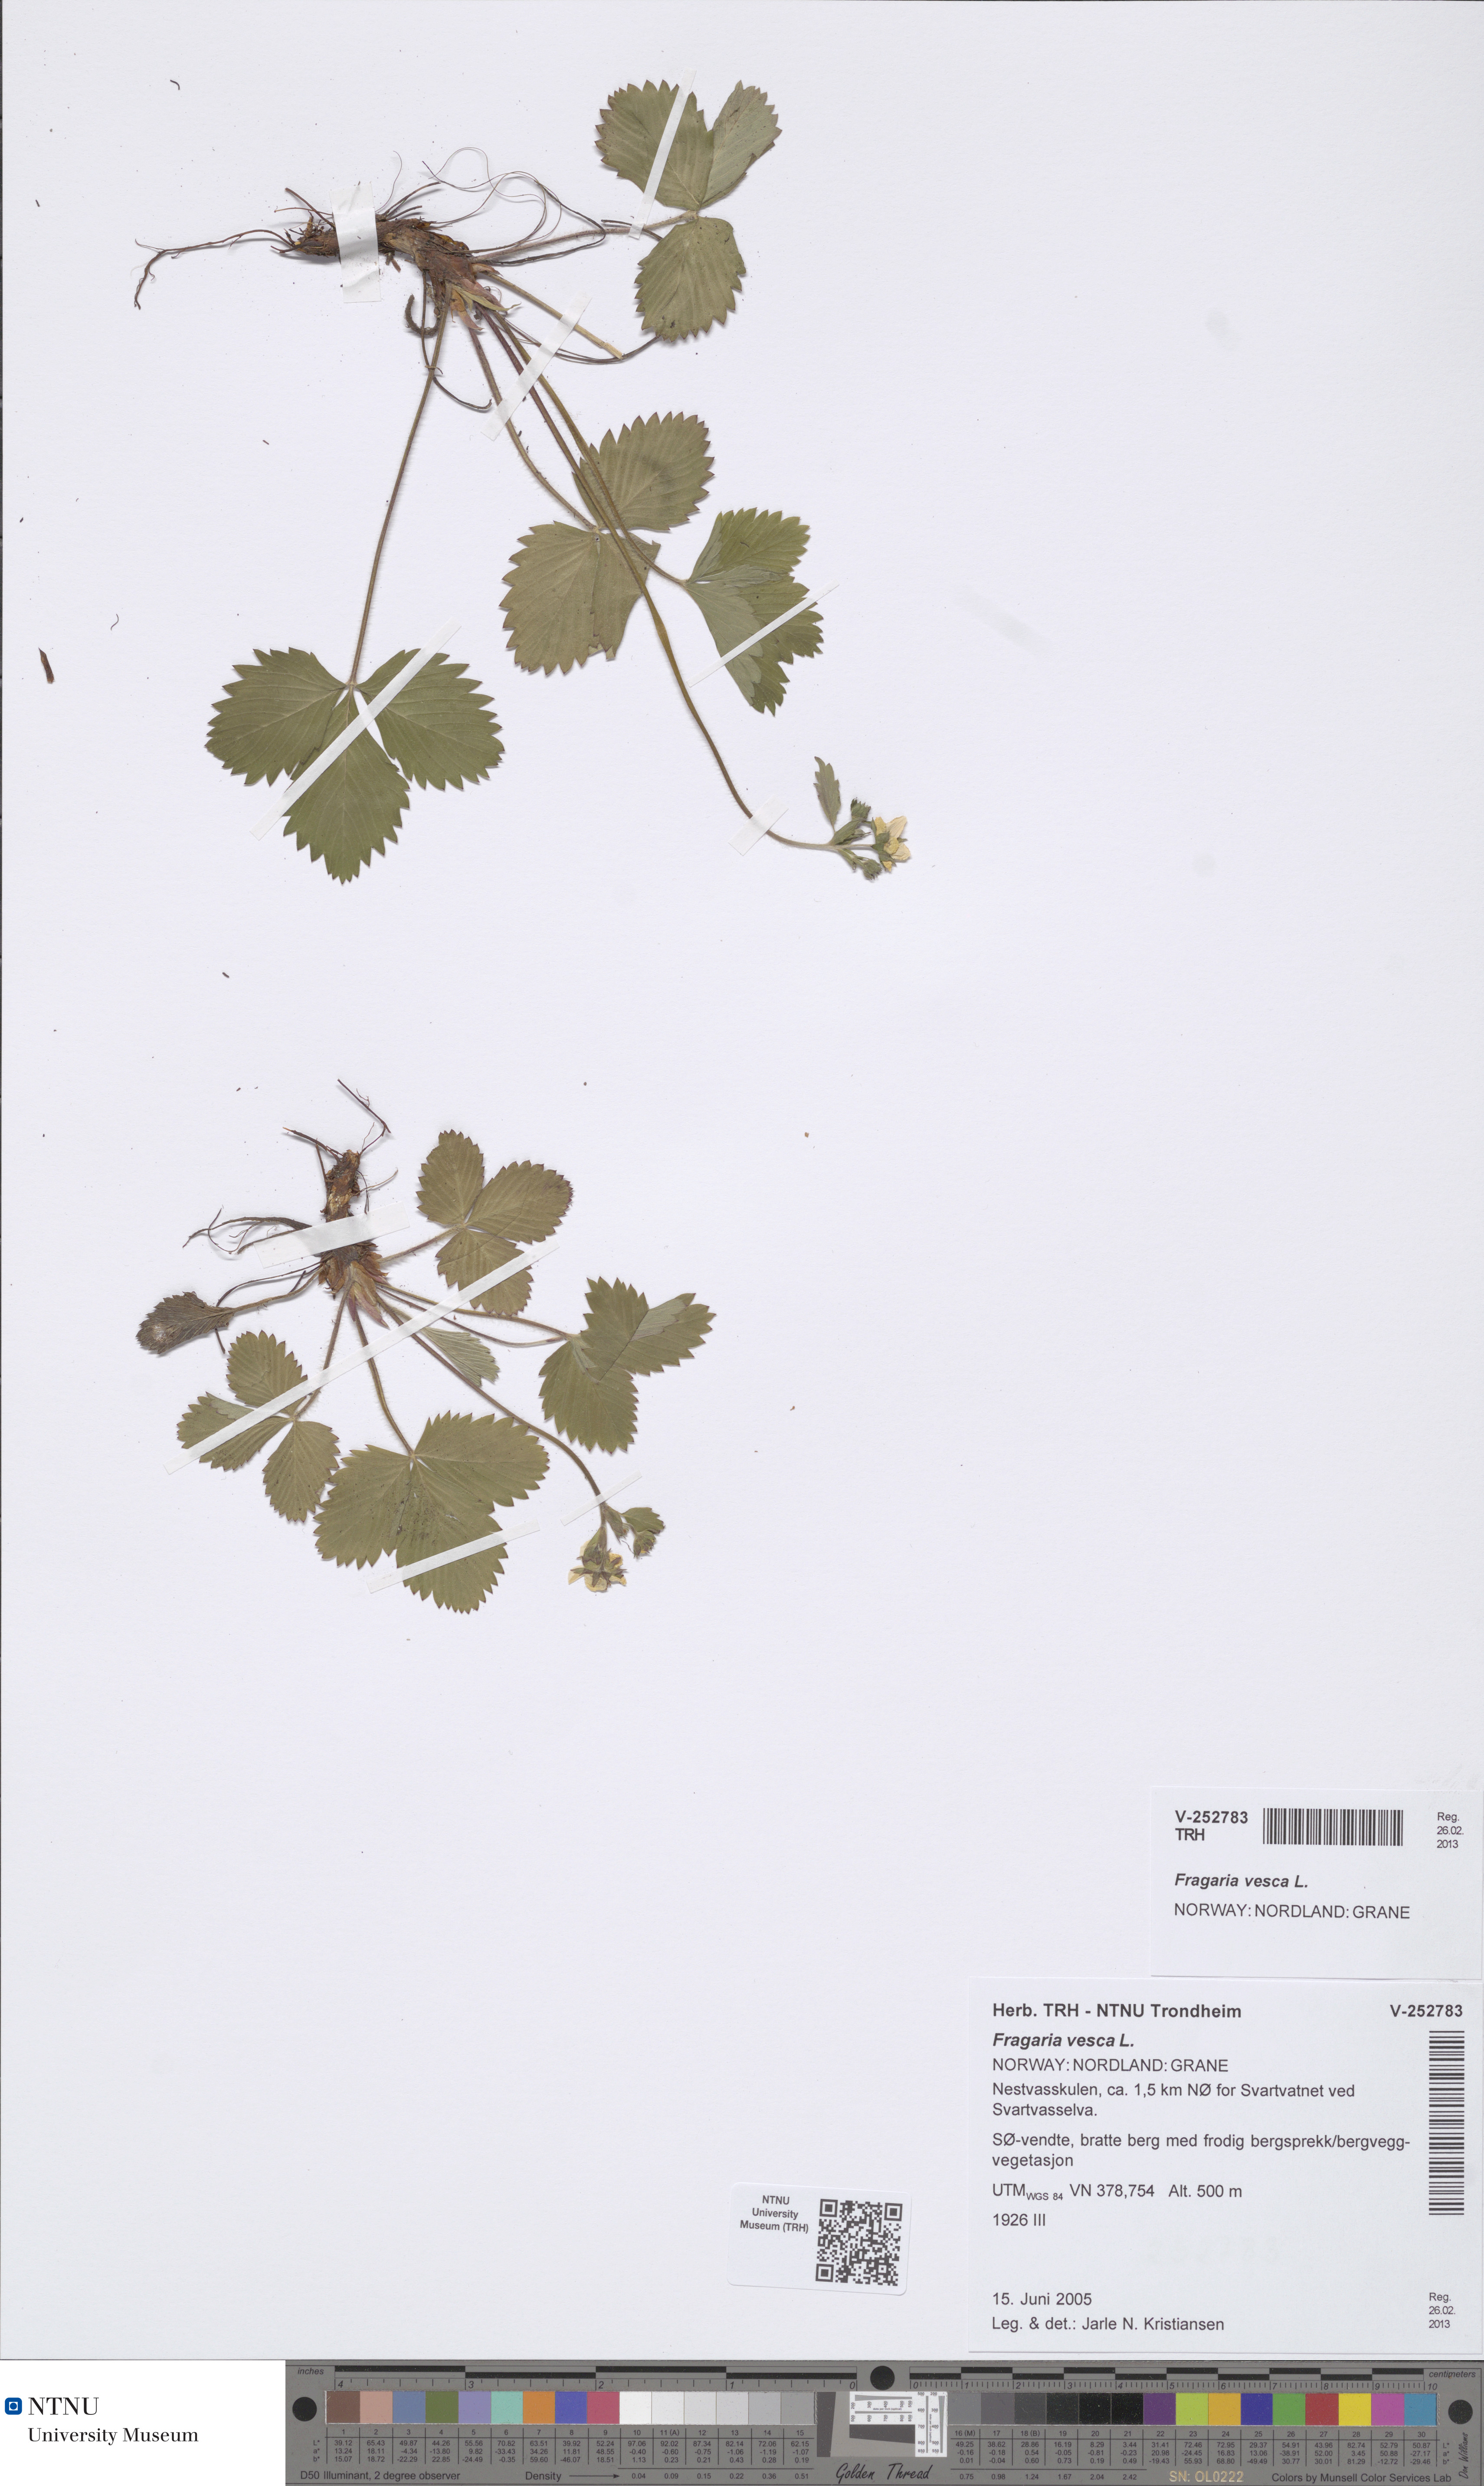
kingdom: Plantae
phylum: Tracheophyta
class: Magnoliopsida
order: Rosales
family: Rosaceae
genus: Fragaria
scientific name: Fragaria vesca
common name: Wild strawberry
